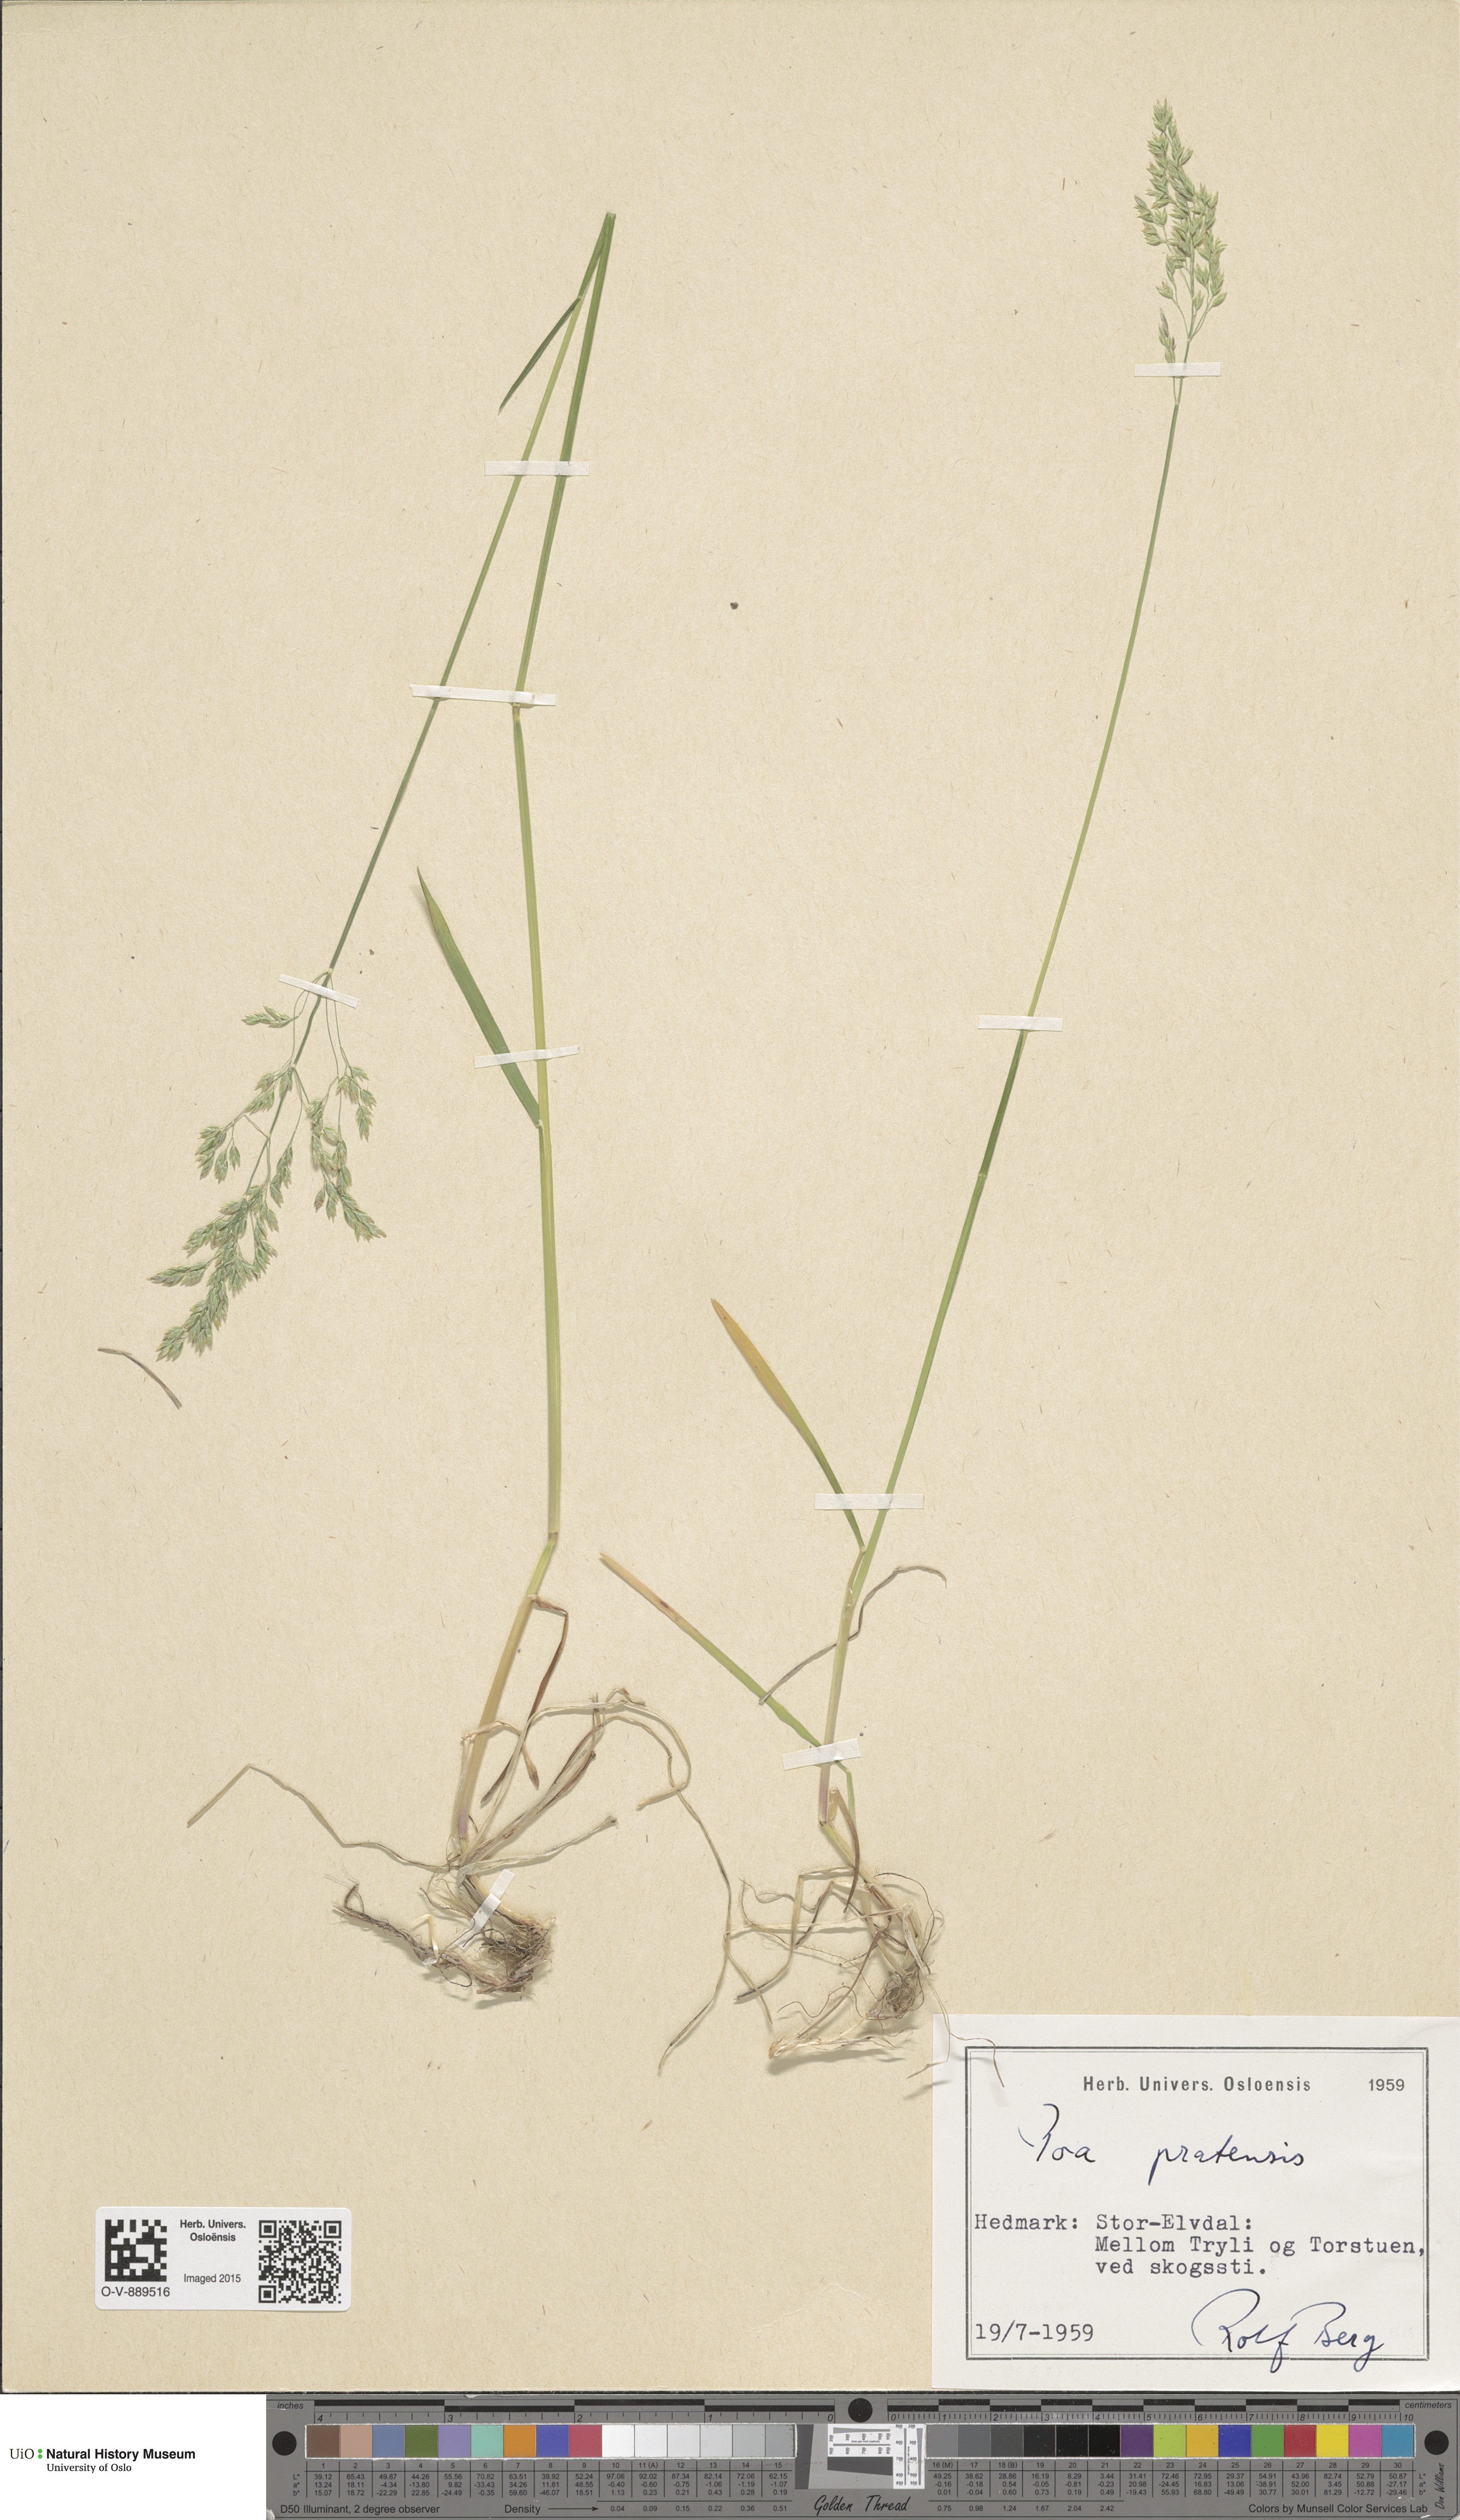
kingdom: Plantae
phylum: Tracheophyta
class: Liliopsida
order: Poales
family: Poaceae
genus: Poa
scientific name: Poa pratensis
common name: Kentucky bluegrass
